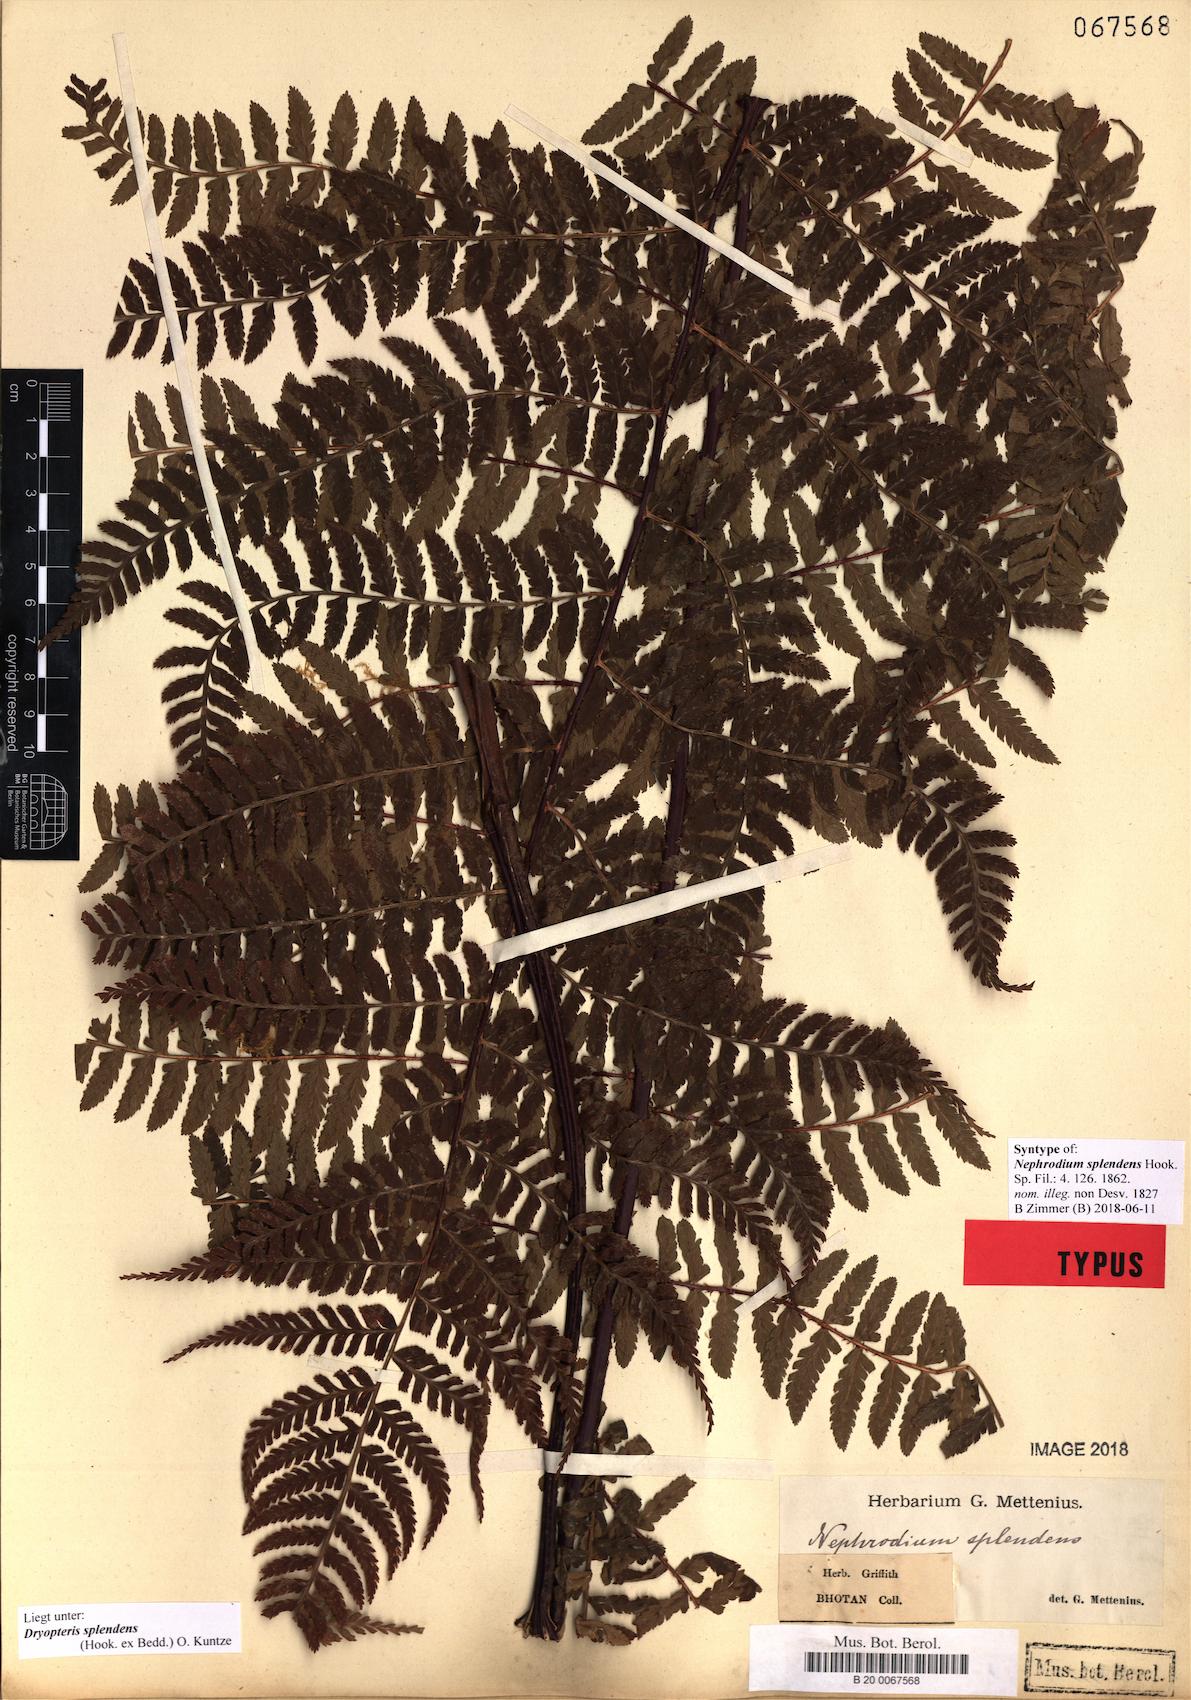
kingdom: Plantae
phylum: Tracheophyta
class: Polypodiopsida
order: Polypodiales
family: Dryopteridaceae
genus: Dryopteris
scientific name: Dryopteris splendens
